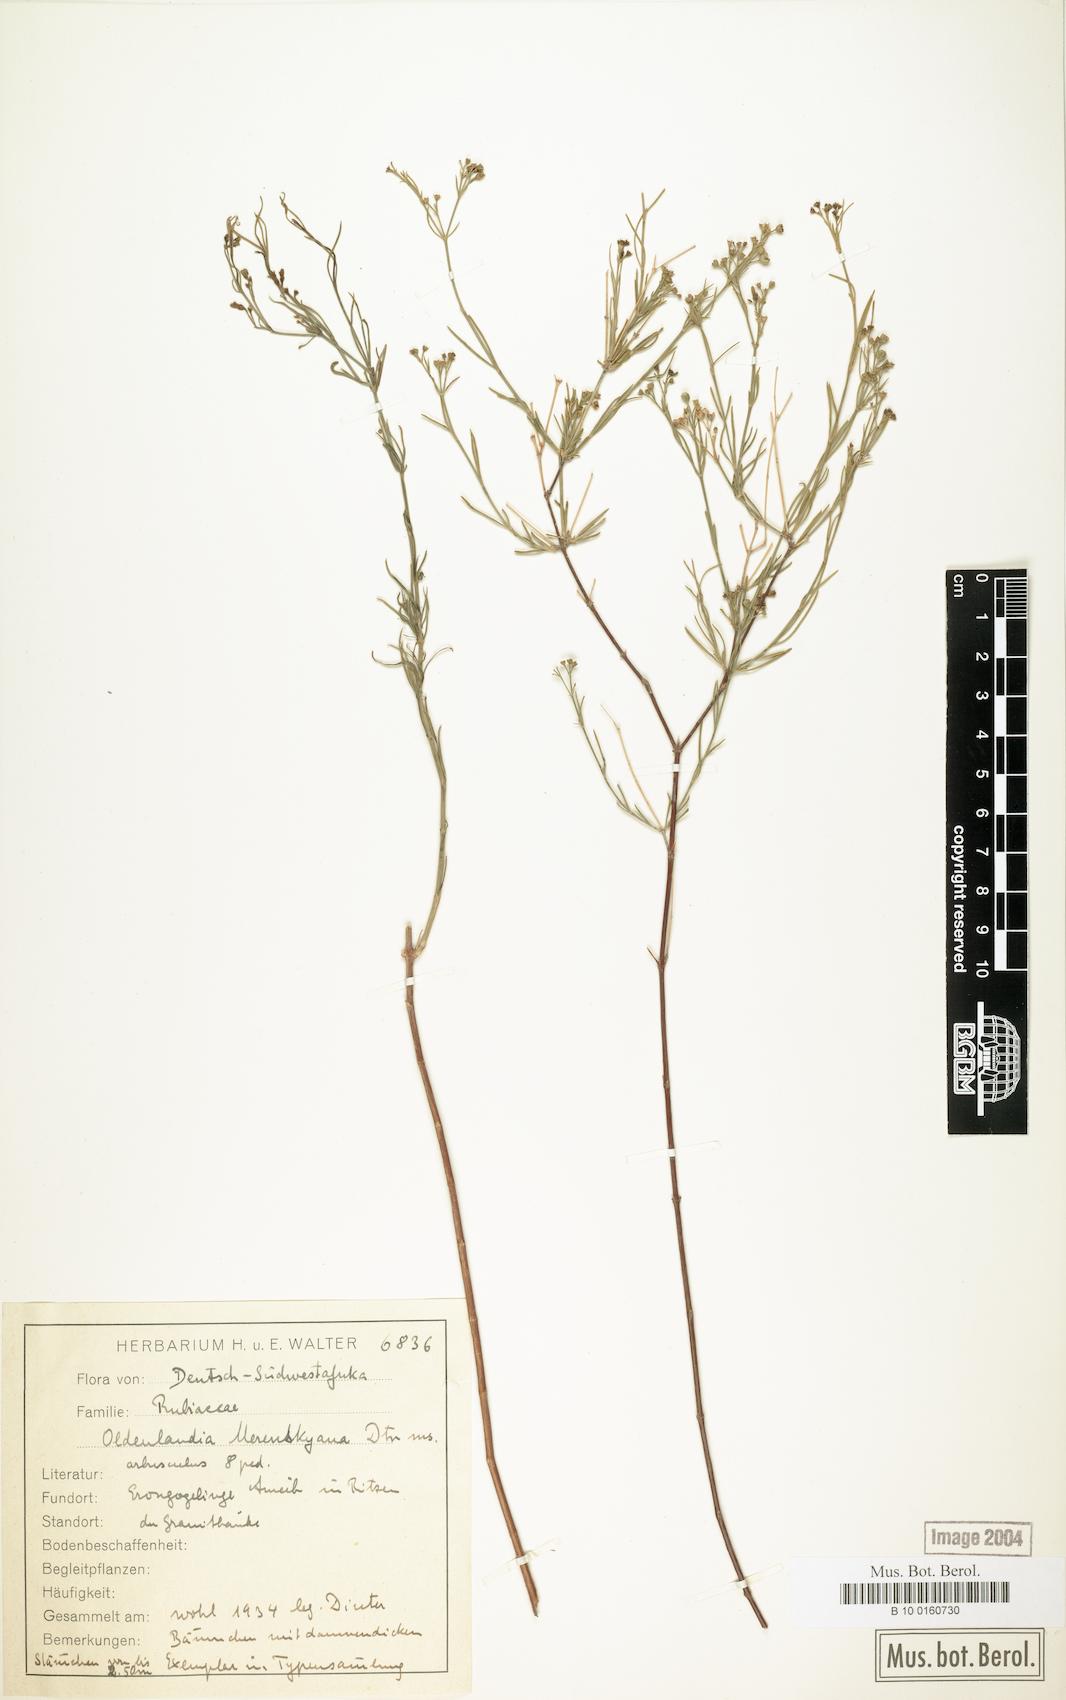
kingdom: Plantae
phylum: Tracheophyta
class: Magnoliopsida
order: Gentianales
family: Rubiaceae
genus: Amphiasma
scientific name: Amphiasma merenskyanum
